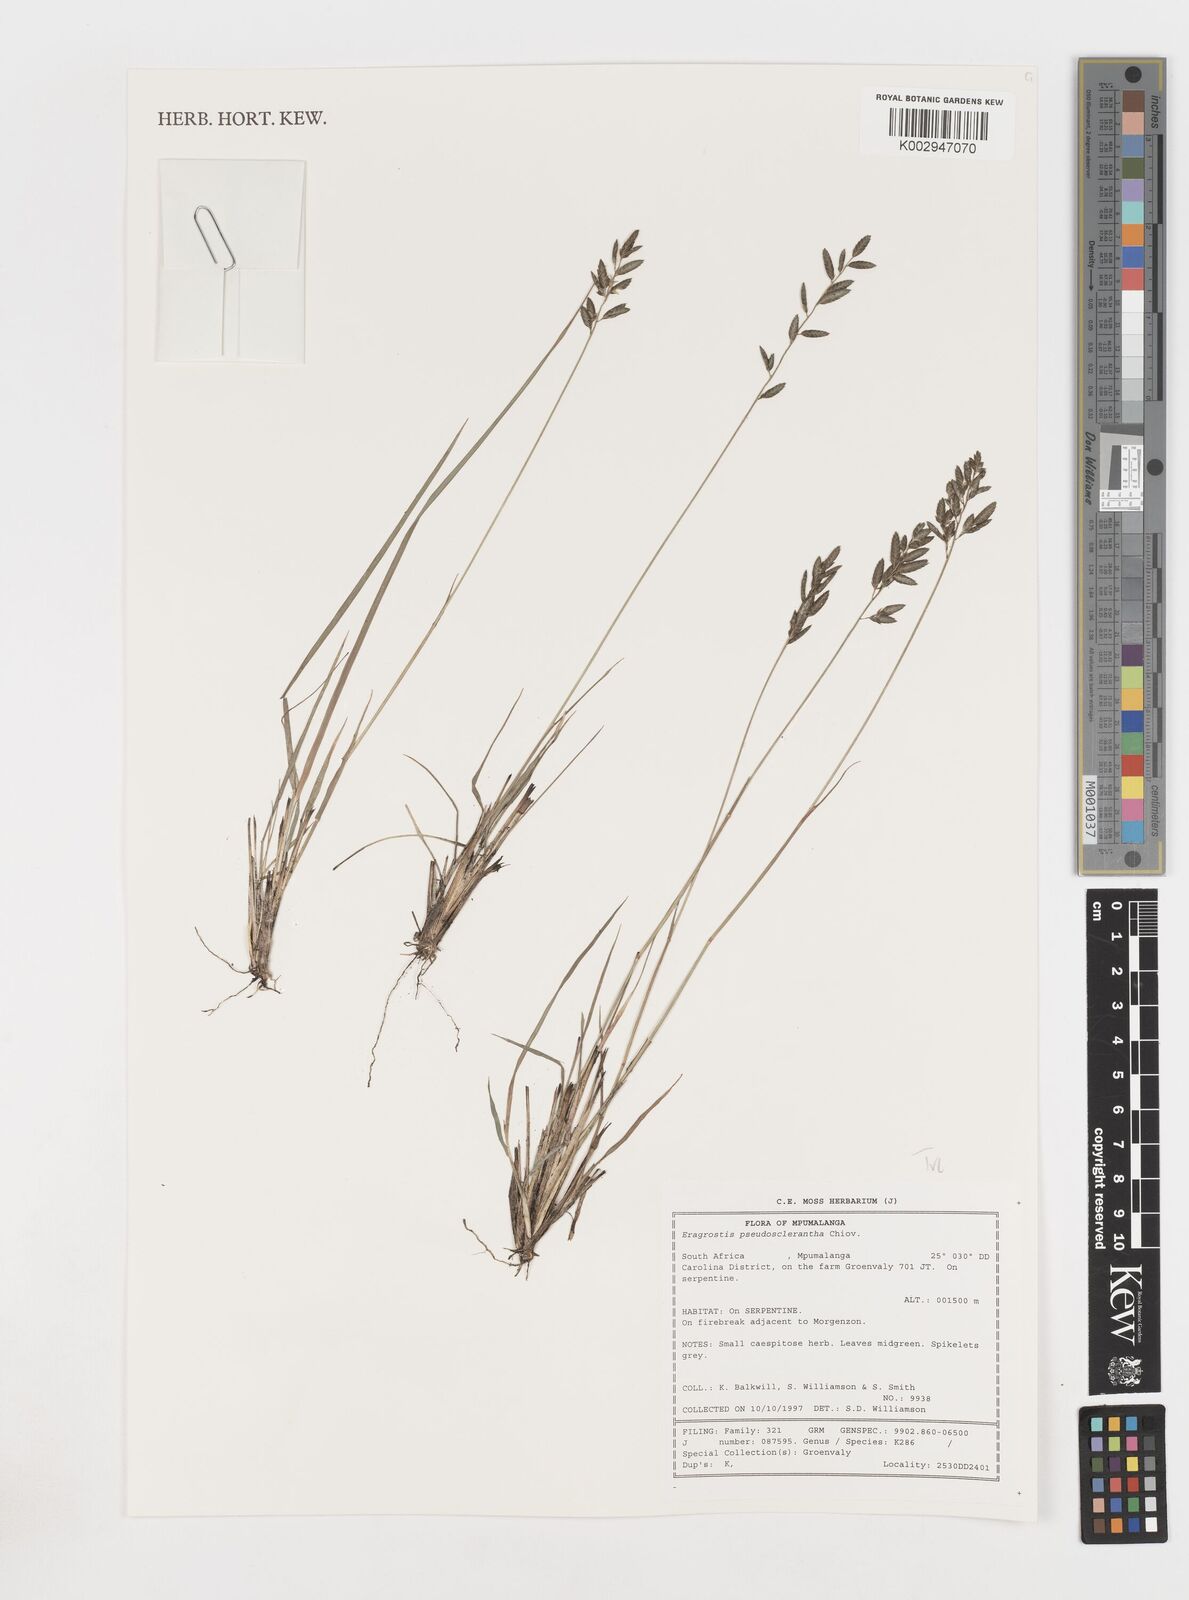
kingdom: Plantae
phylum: Tracheophyta
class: Liliopsida
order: Poales
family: Poaceae
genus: Eragrostis
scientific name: Eragrostis pseudobtusa
